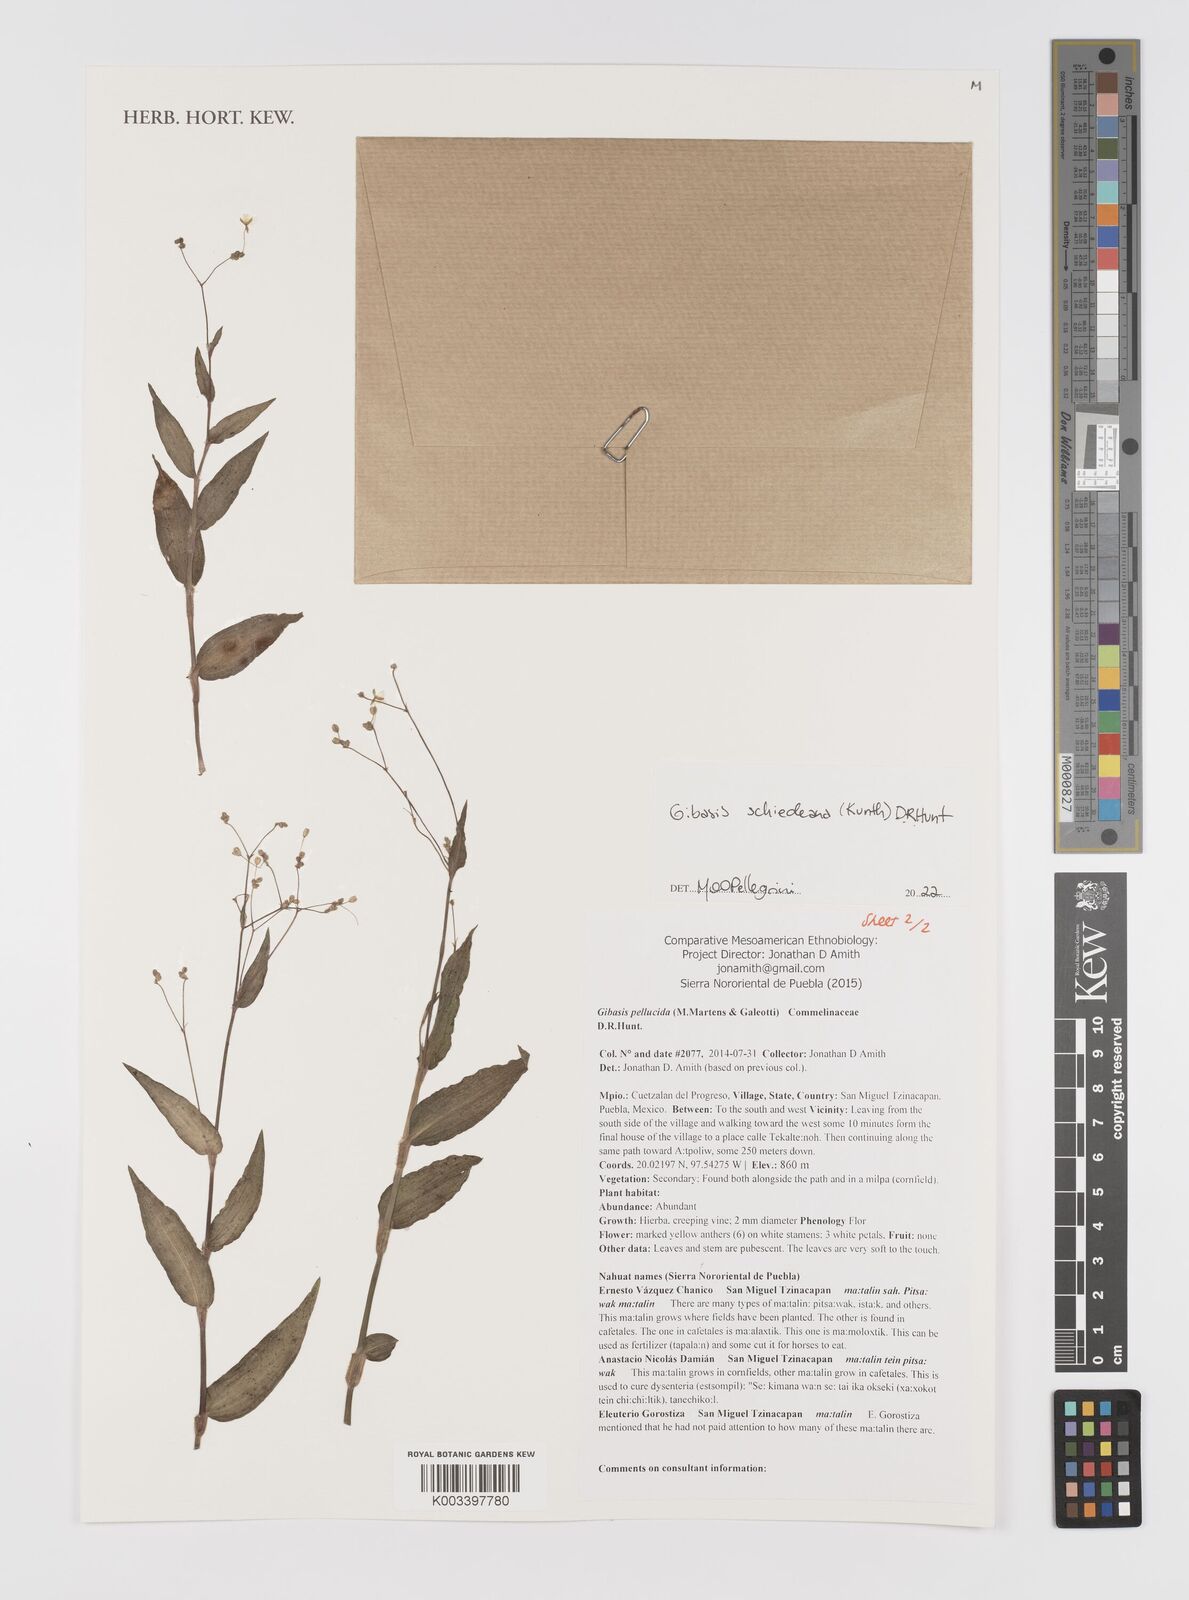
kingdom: Plantae
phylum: Tracheophyta
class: Liliopsida
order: Commelinales
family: Commelinaceae
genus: Gibasis
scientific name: Gibasis
